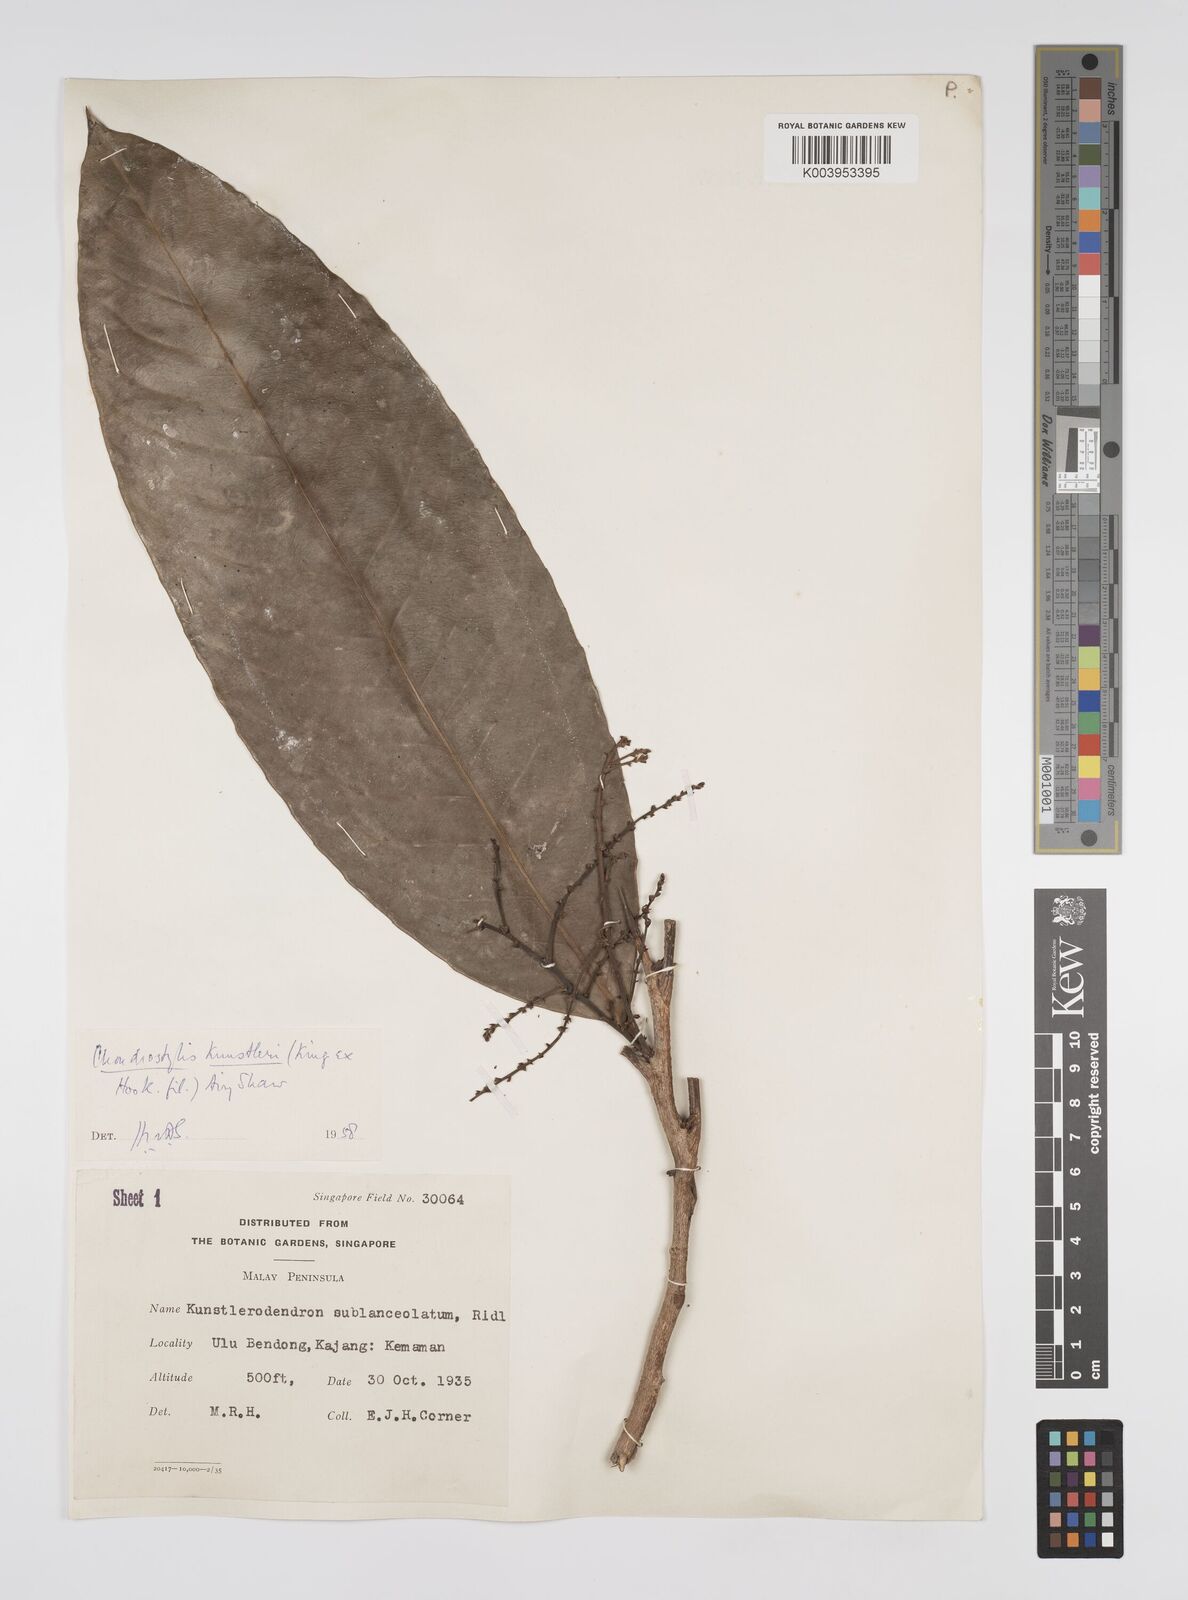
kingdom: Plantae
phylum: Tracheophyta
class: Magnoliopsida
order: Malpighiales
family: Euphorbiaceae
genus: Chondrostylis
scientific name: Chondrostylis kunstleri
